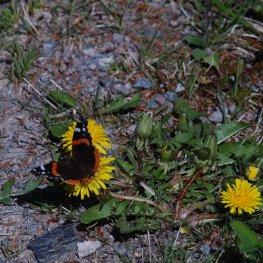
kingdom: Animalia
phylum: Arthropoda
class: Insecta
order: Lepidoptera
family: Nymphalidae
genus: Vanessa
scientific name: Vanessa atalanta
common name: Red Admiral
